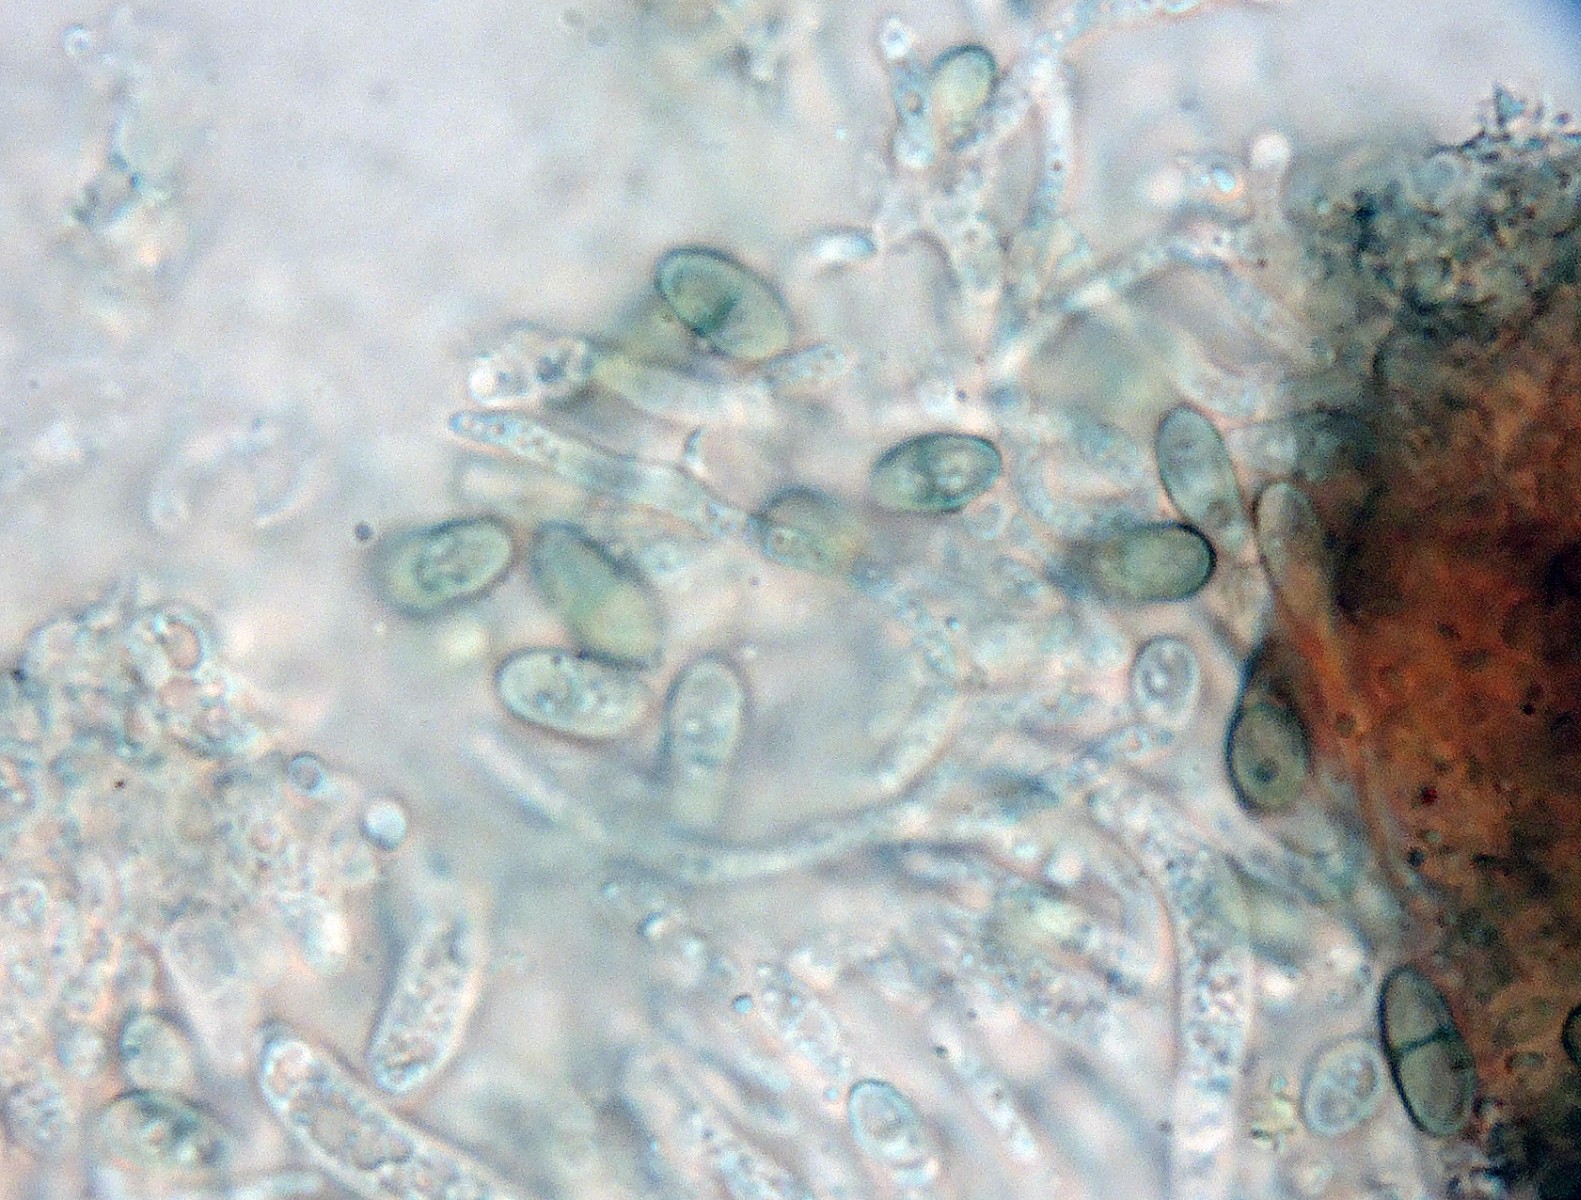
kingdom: Fungi
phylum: Ascomycota
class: Lecanoromycetes
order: Caliciales
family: Caliciaceae
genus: Calicium
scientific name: Calicium salicinum
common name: persoons nålelav
